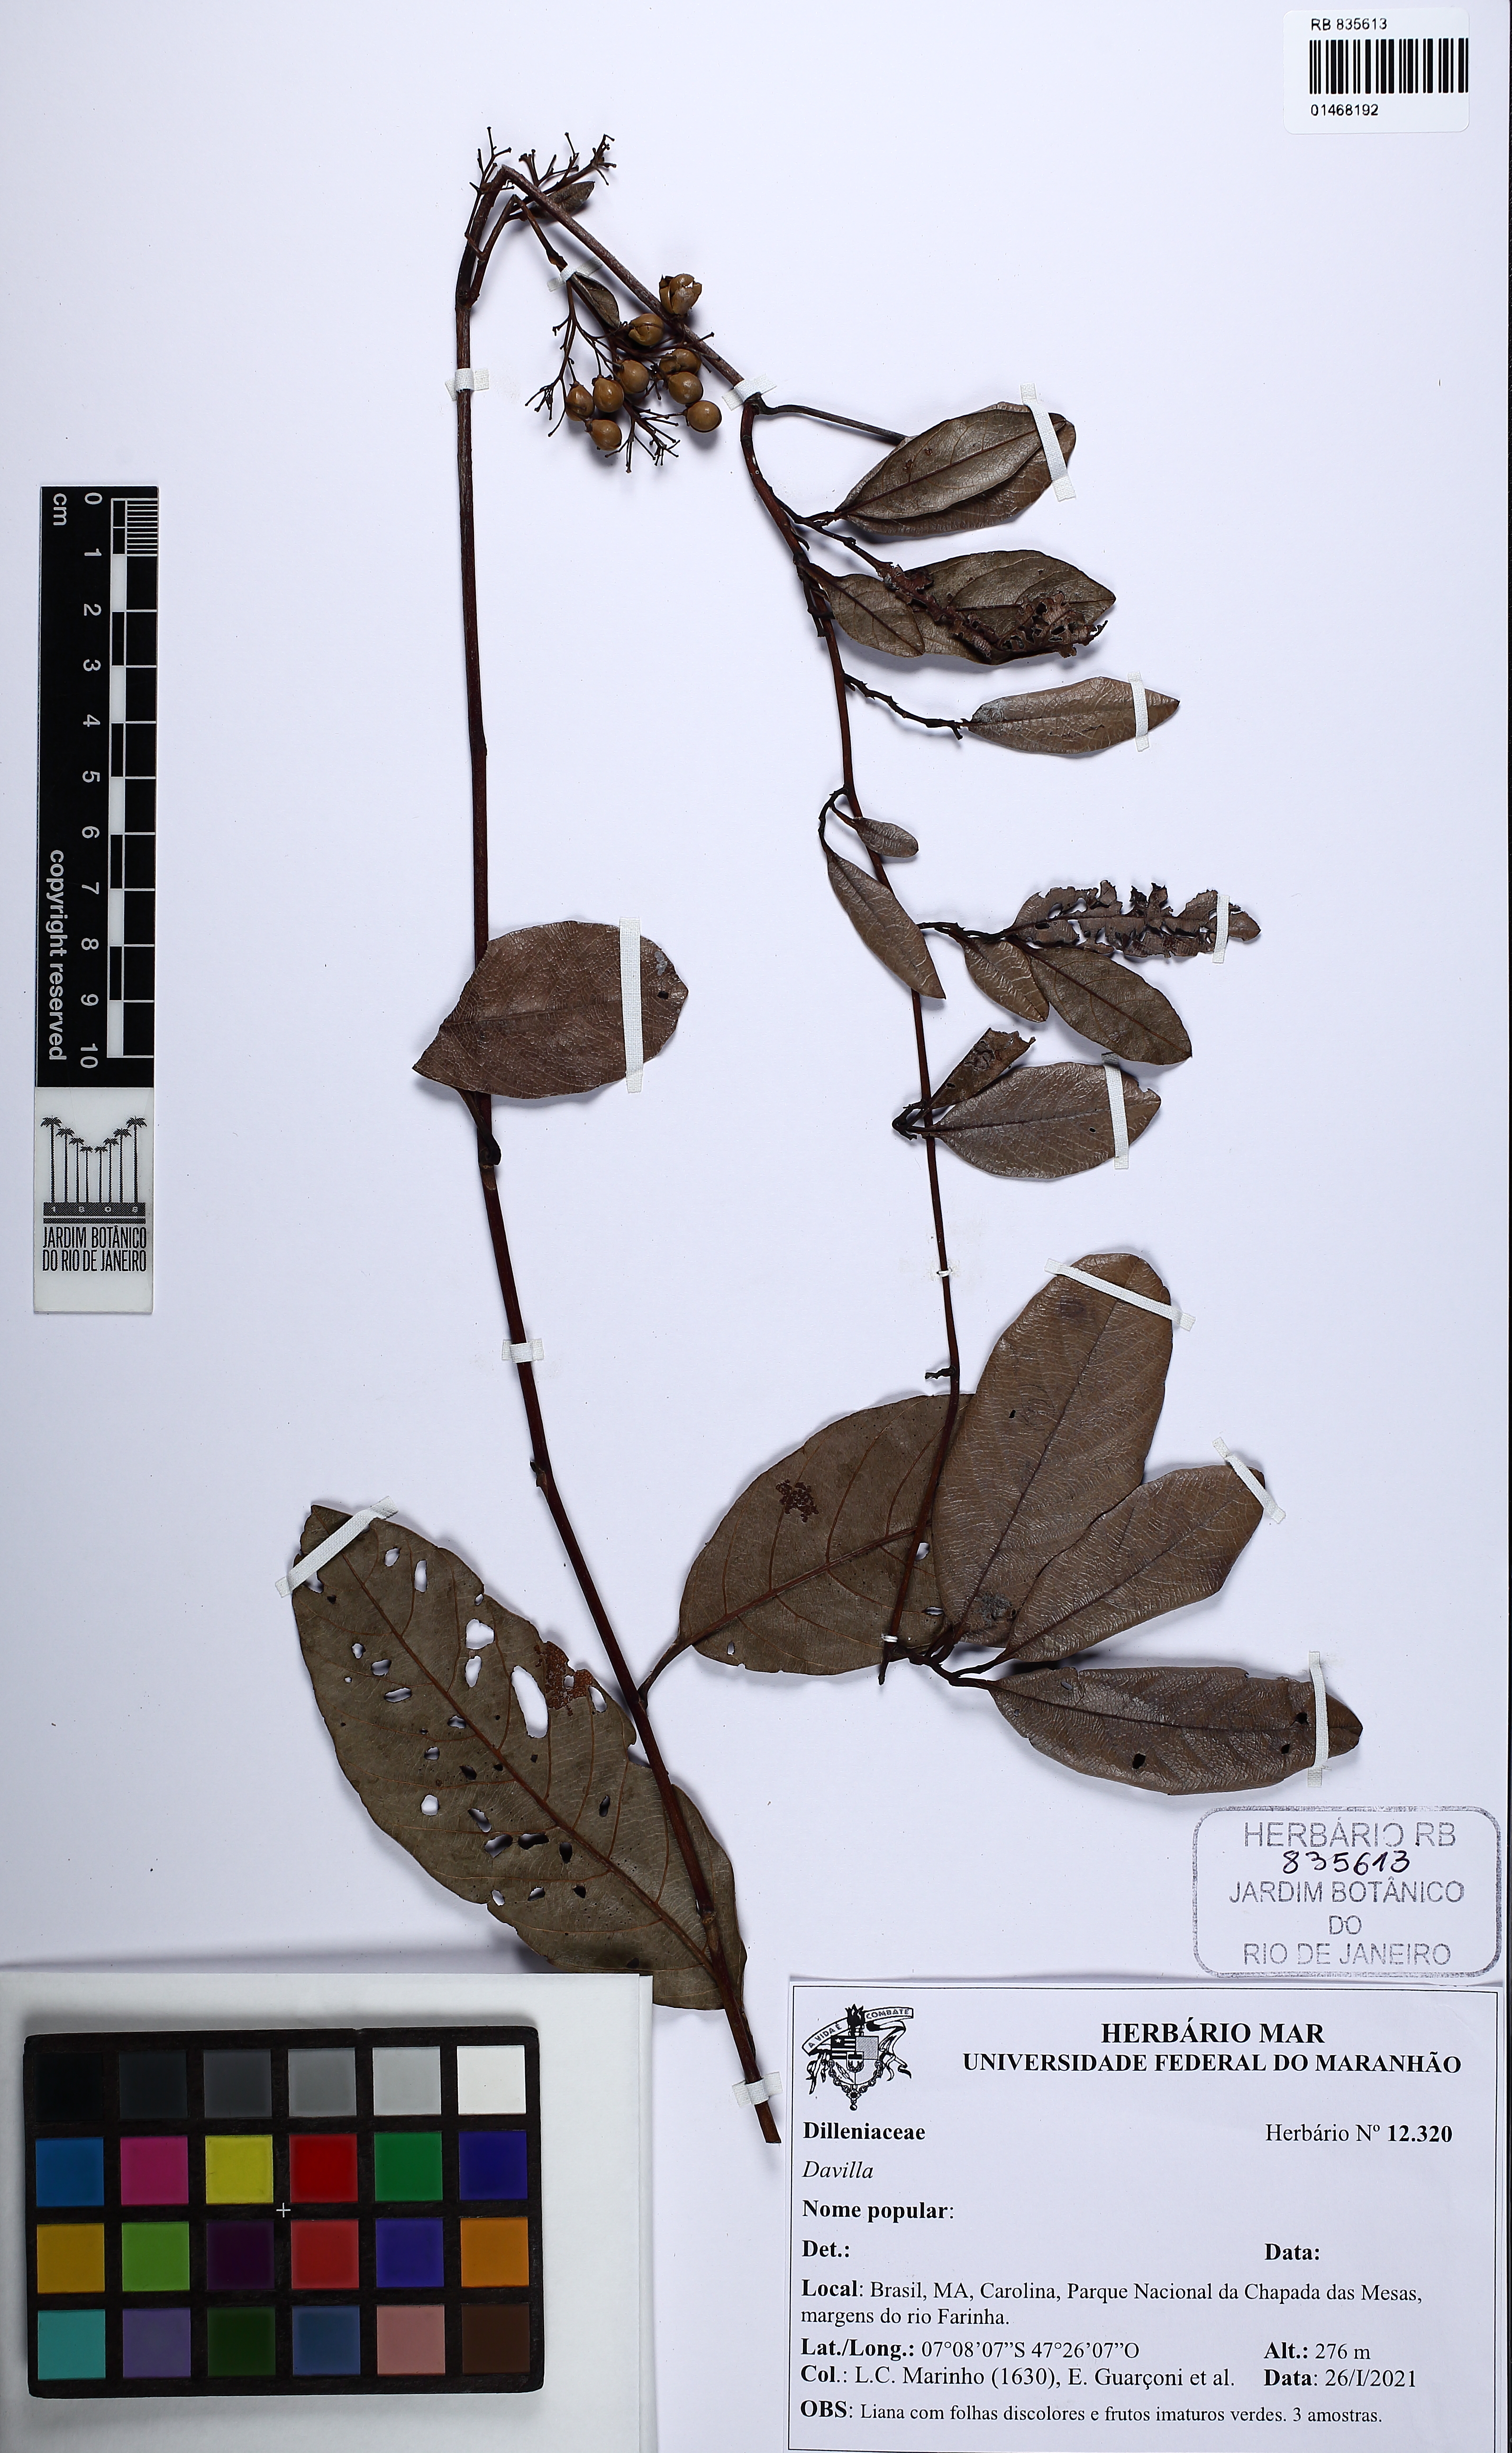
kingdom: Plantae
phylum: Tracheophyta
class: Magnoliopsida
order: Dilleniales
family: Dilleniaceae
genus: Davilla
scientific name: Davilla
